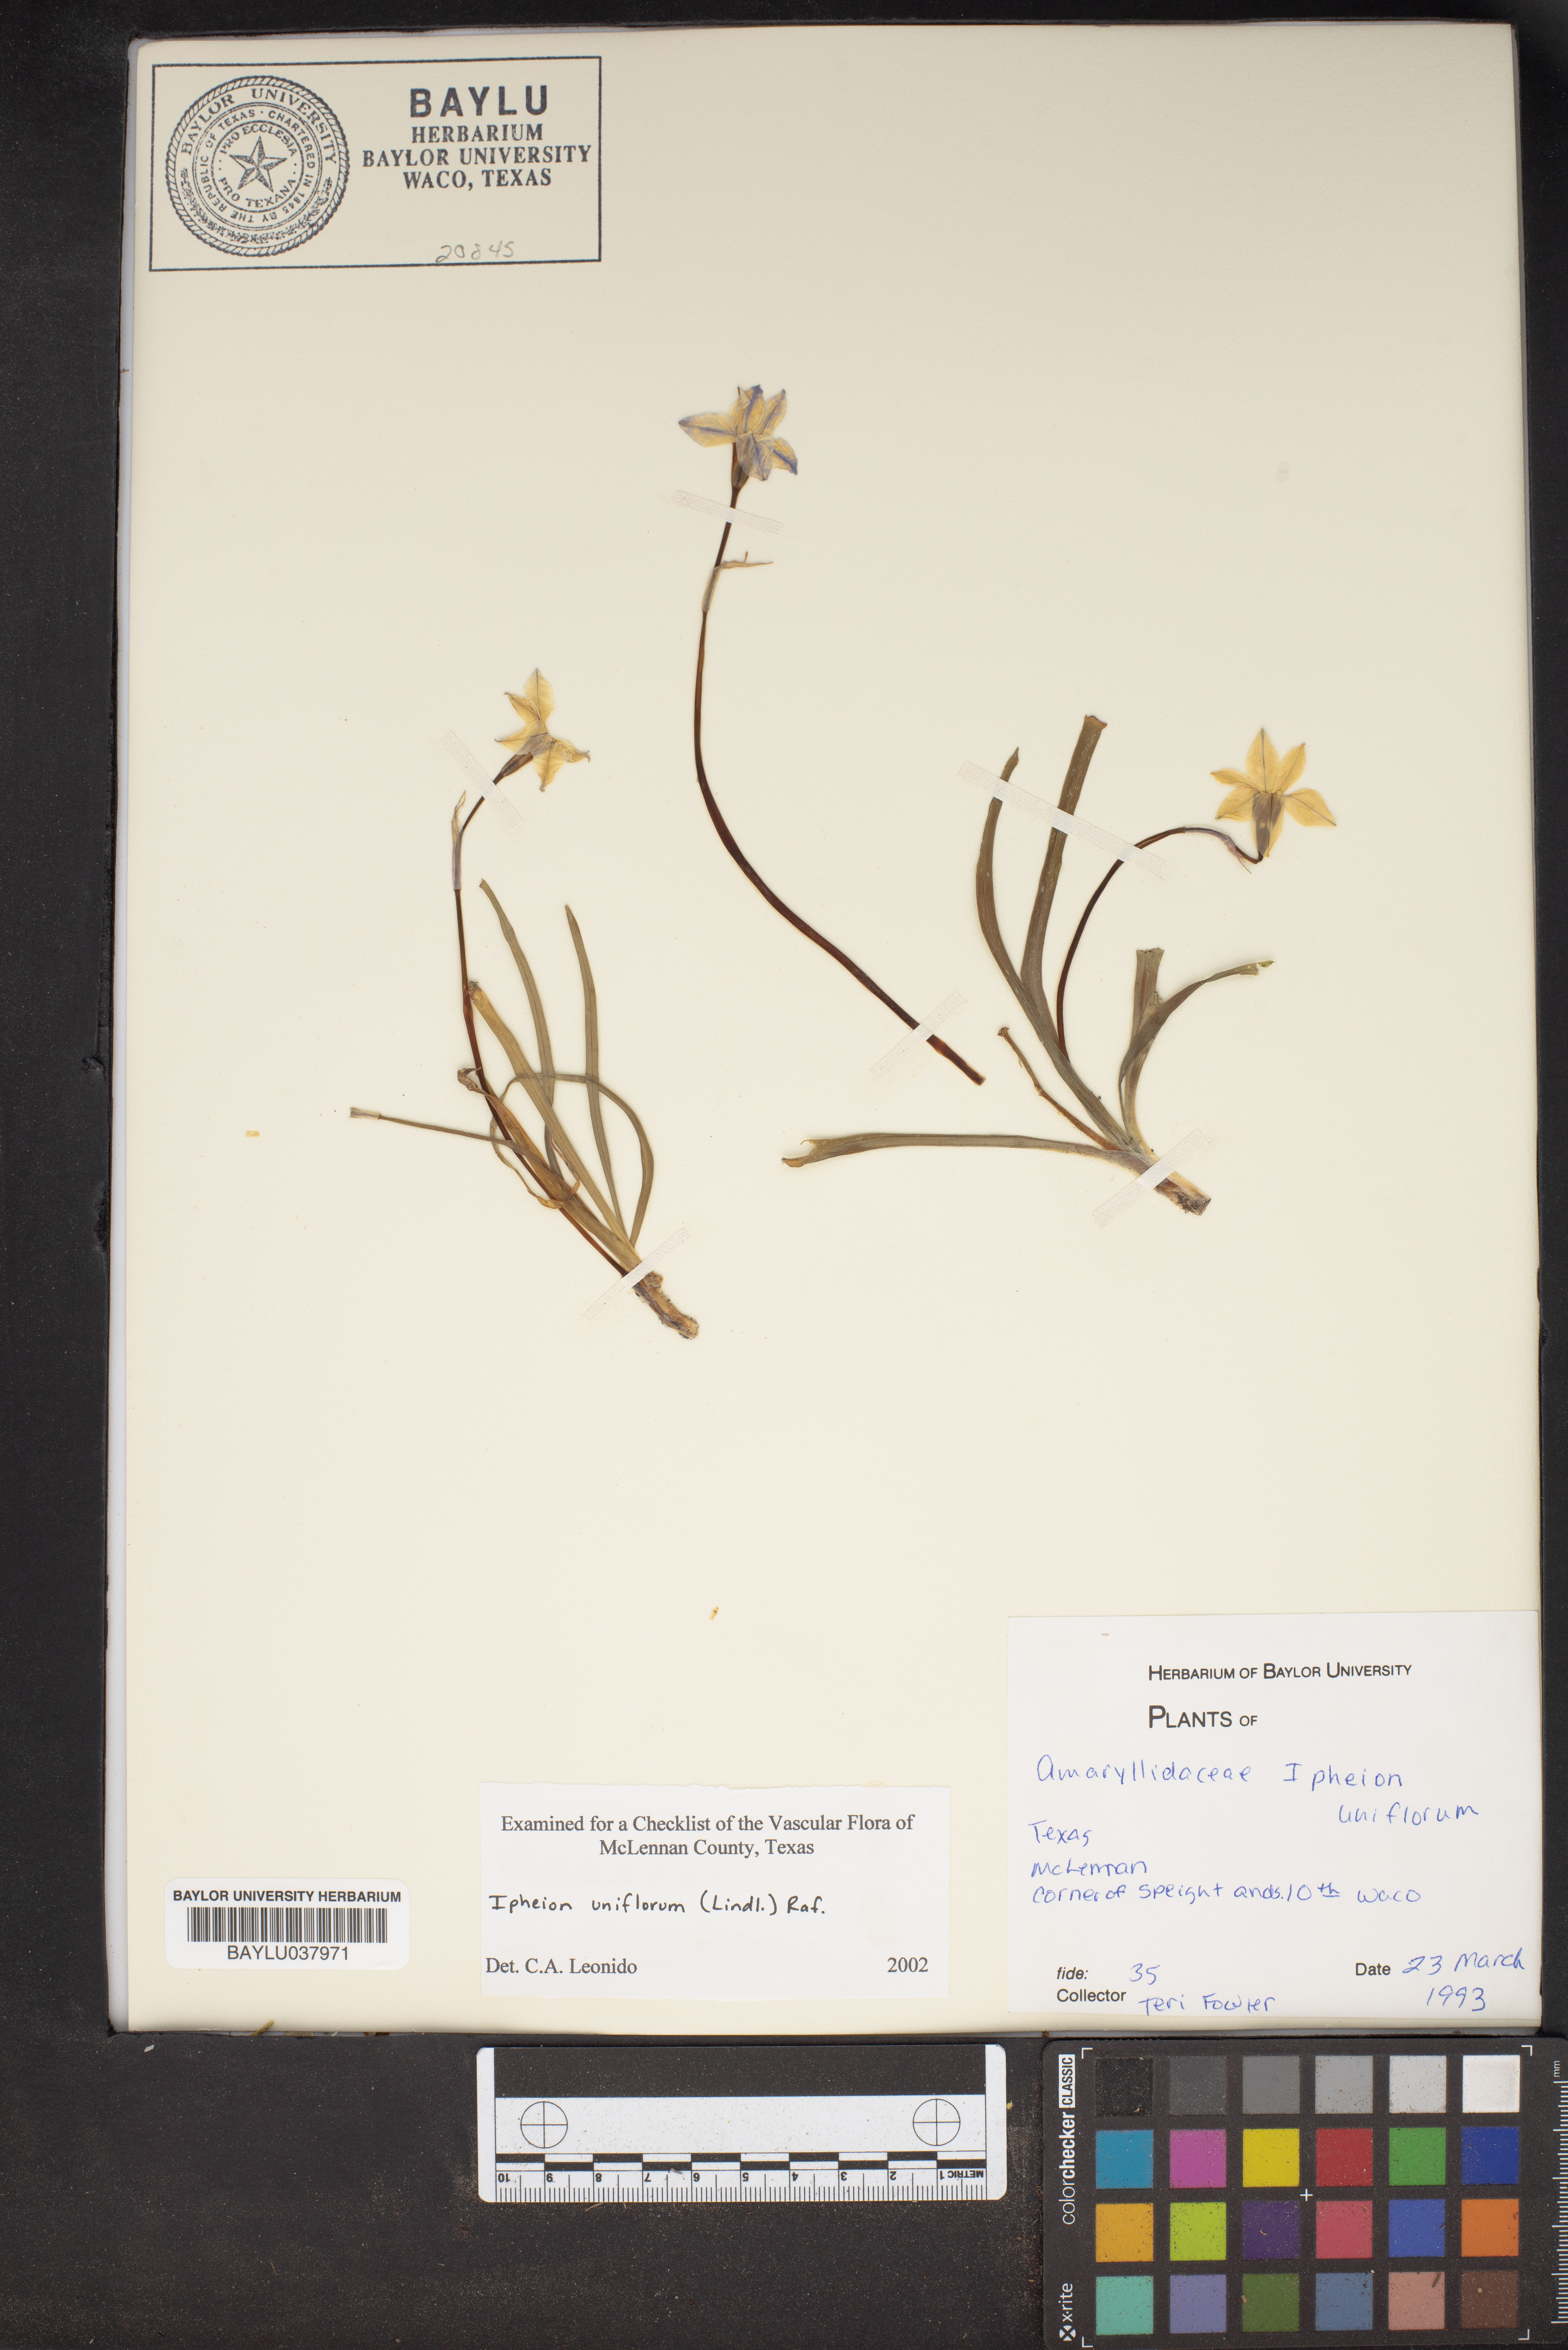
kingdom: Plantae
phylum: Tracheophyta
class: Liliopsida
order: Asparagales
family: Amaryllidaceae
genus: Ipheion
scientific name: Ipheion uniflorum
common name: Spring starflower
